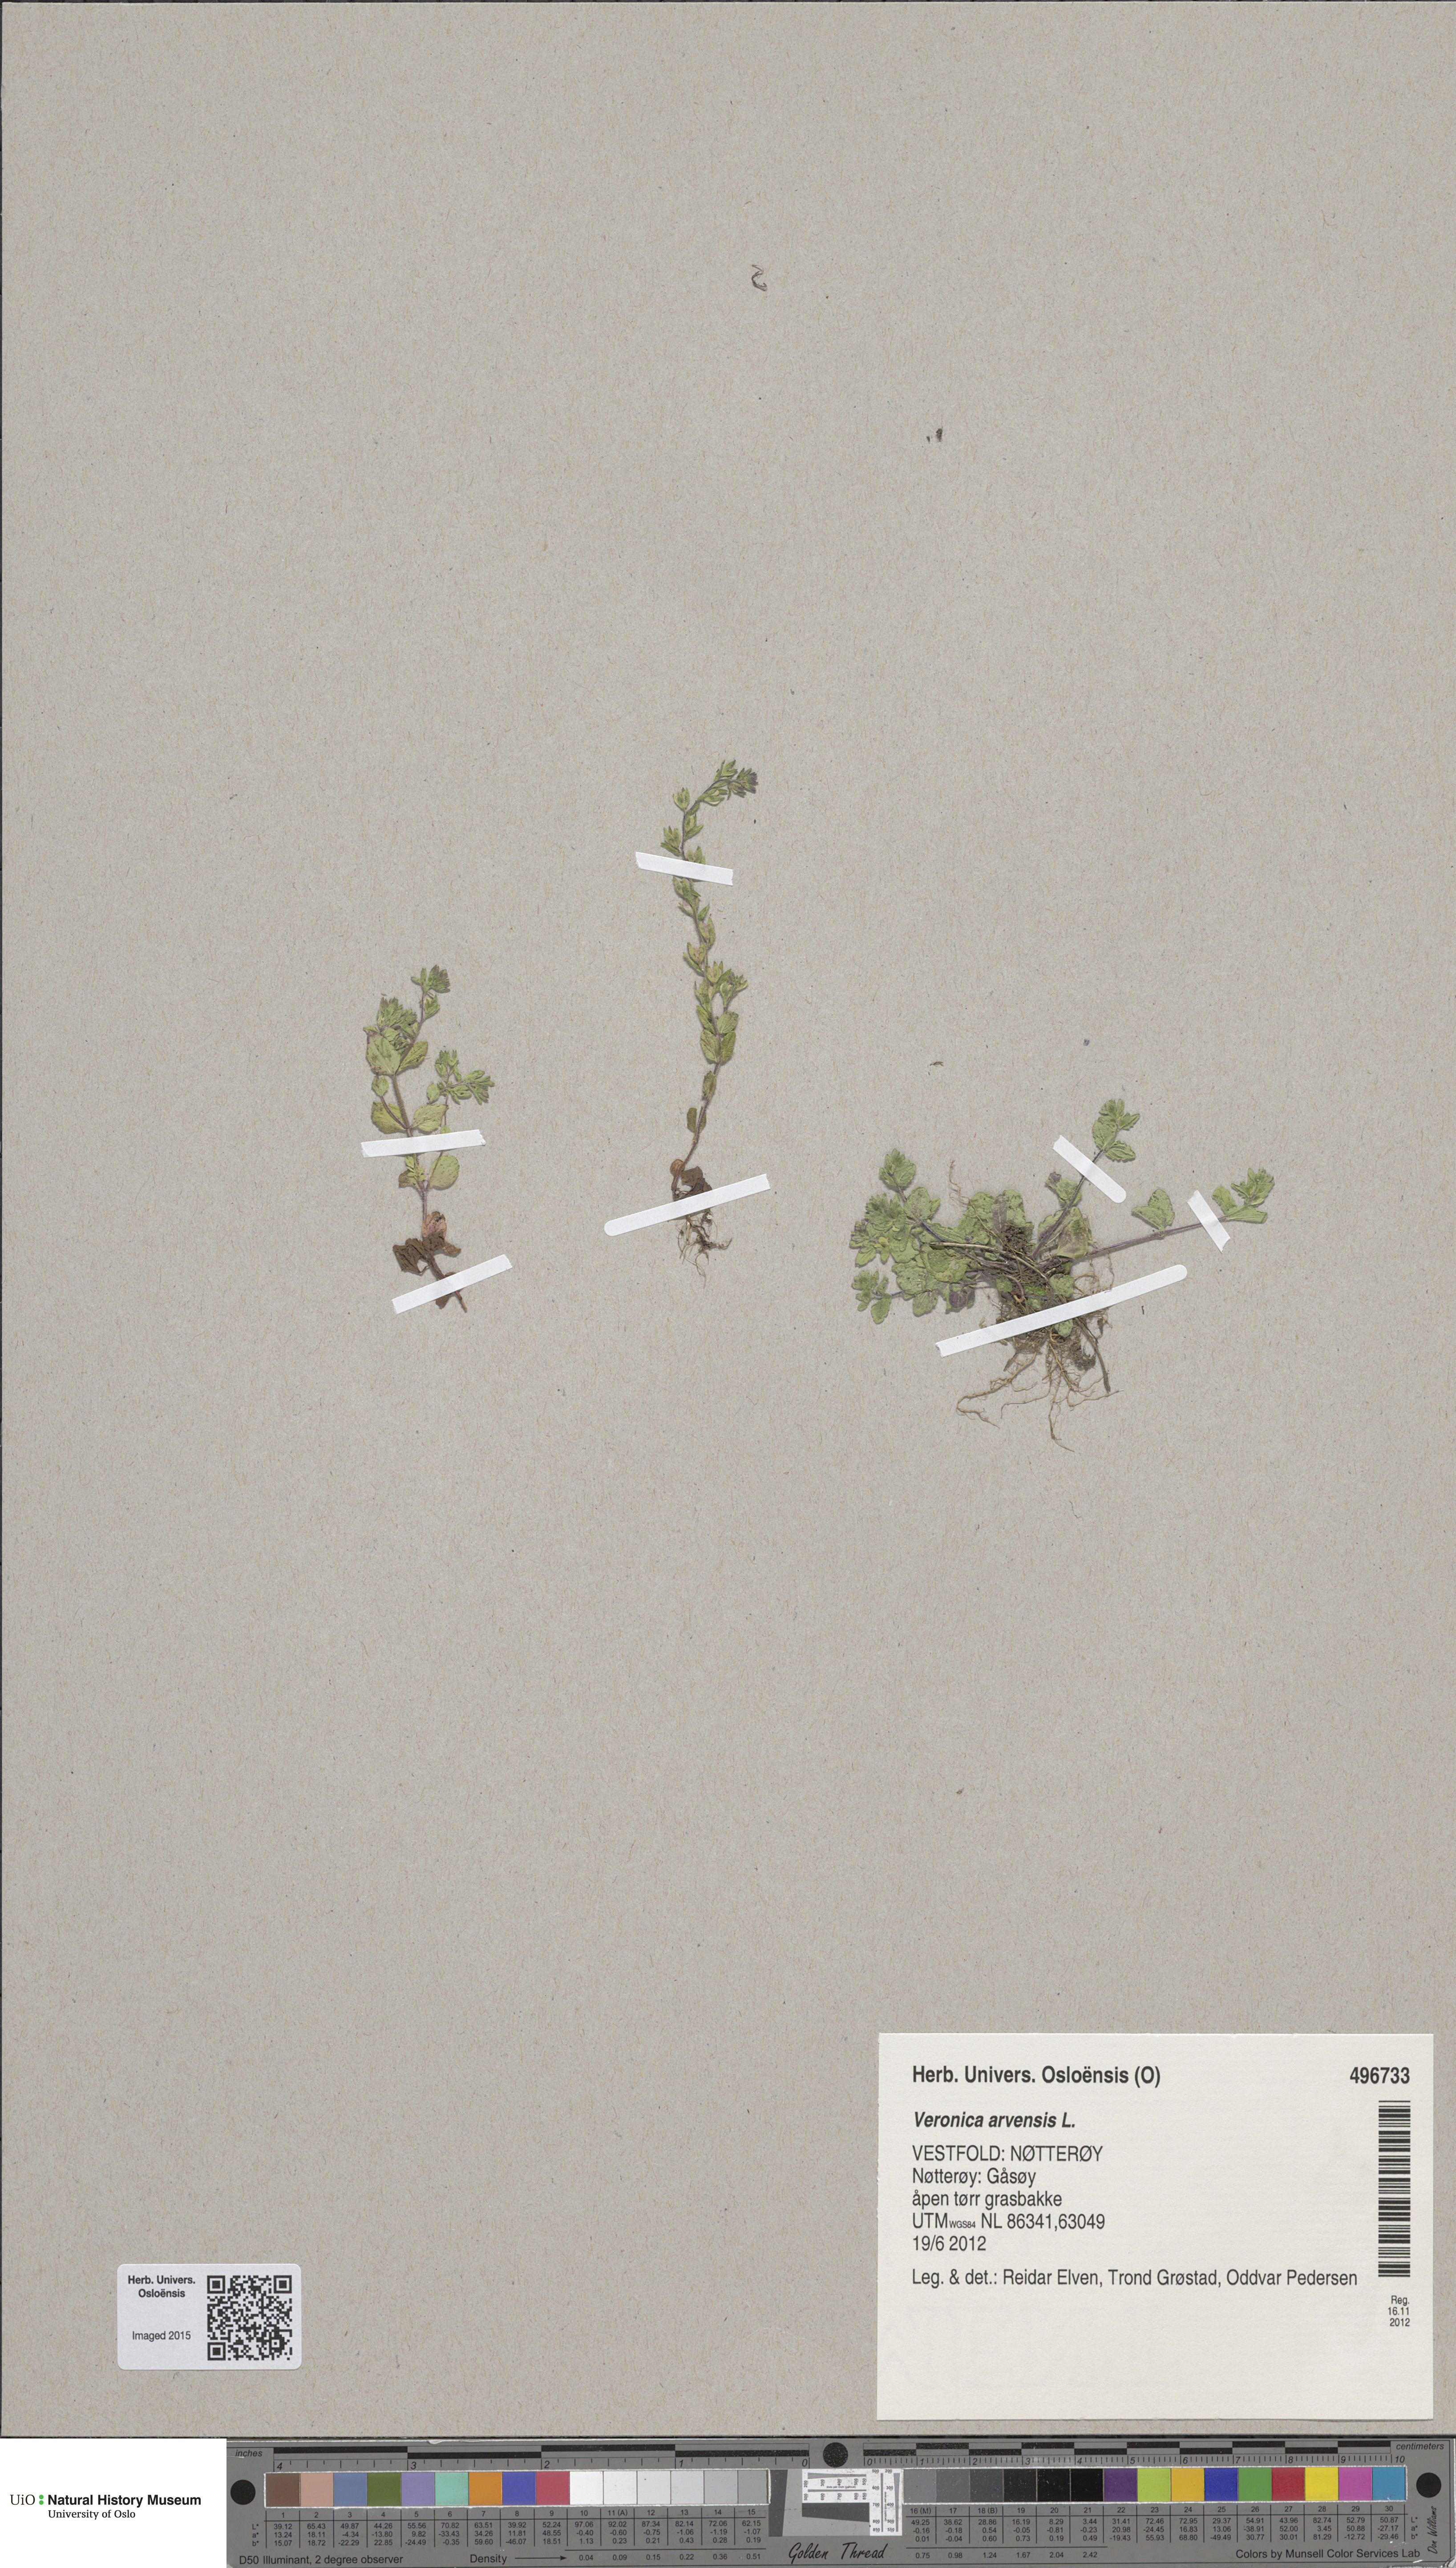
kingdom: Plantae
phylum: Tracheophyta
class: Magnoliopsida
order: Lamiales
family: Plantaginaceae
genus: Veronica
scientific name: Veronica arvensis
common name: Corn speedwell
